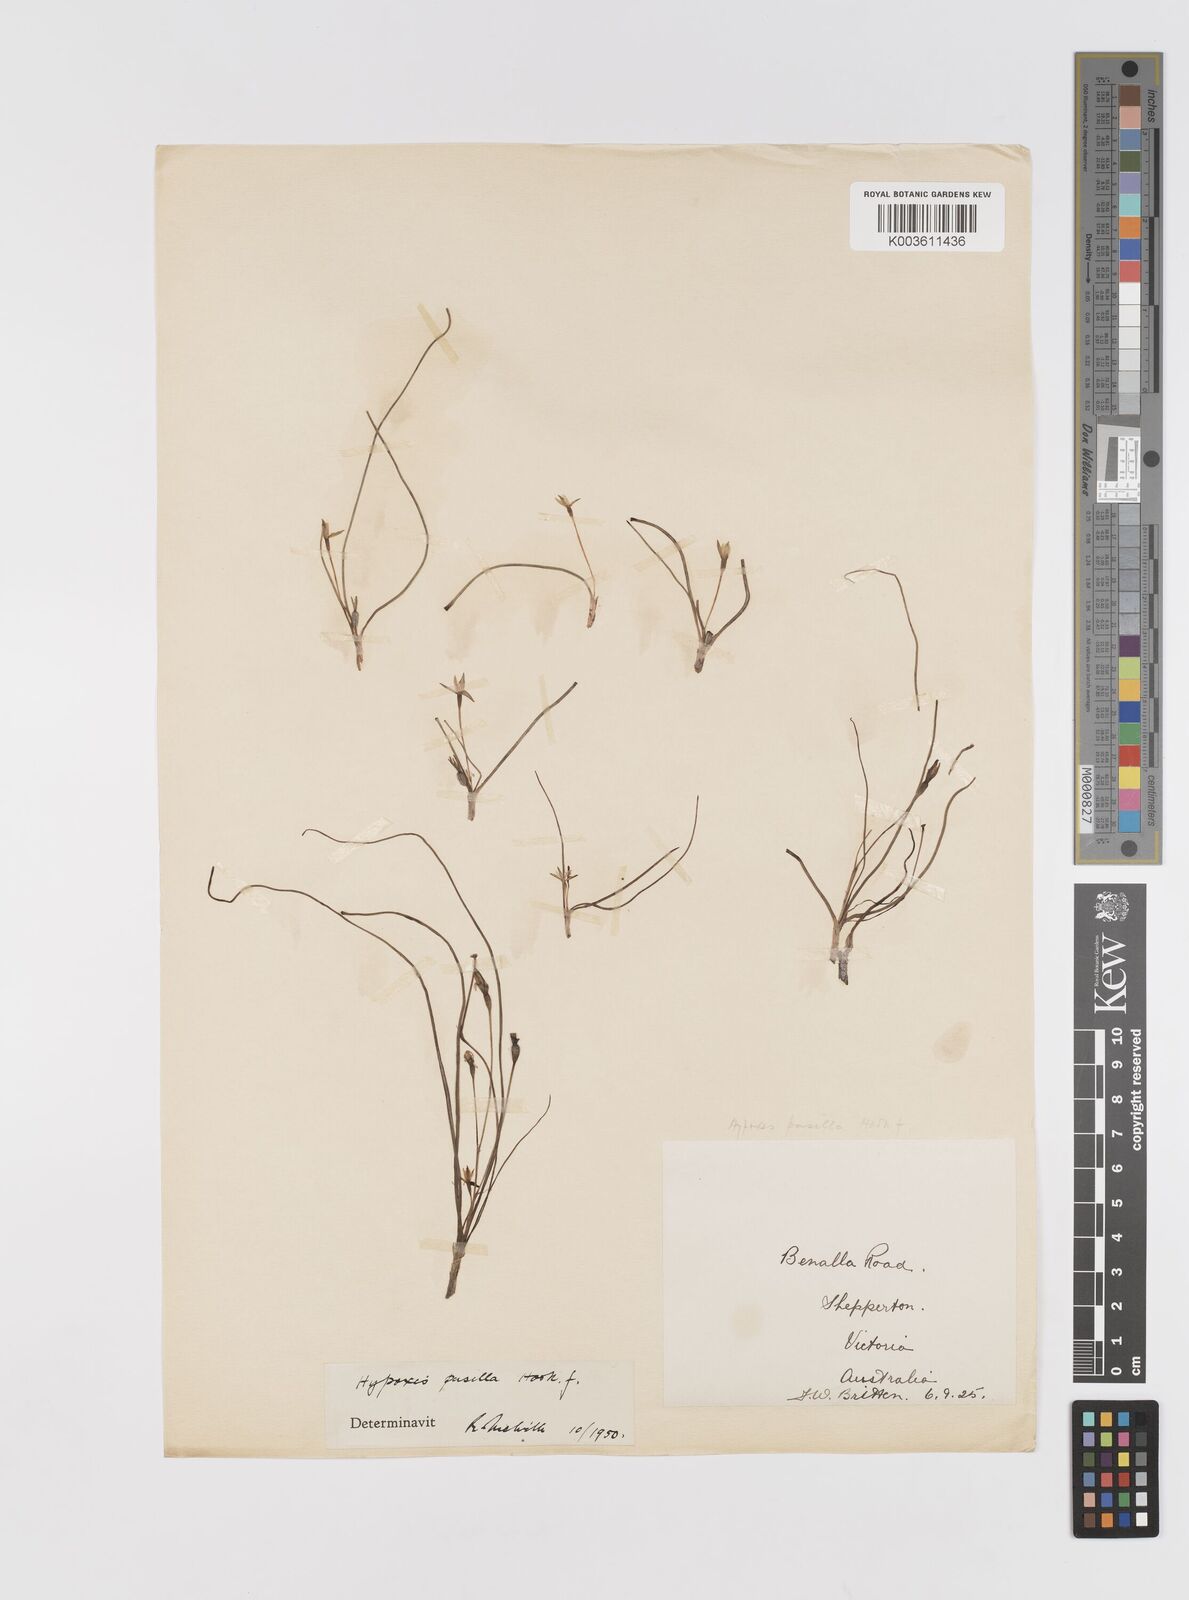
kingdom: Plantae
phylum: Tracheophyta
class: Liliopsida
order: Asparagales
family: Hypoxidaceae
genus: Pauridia
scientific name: Pauridia glabella
